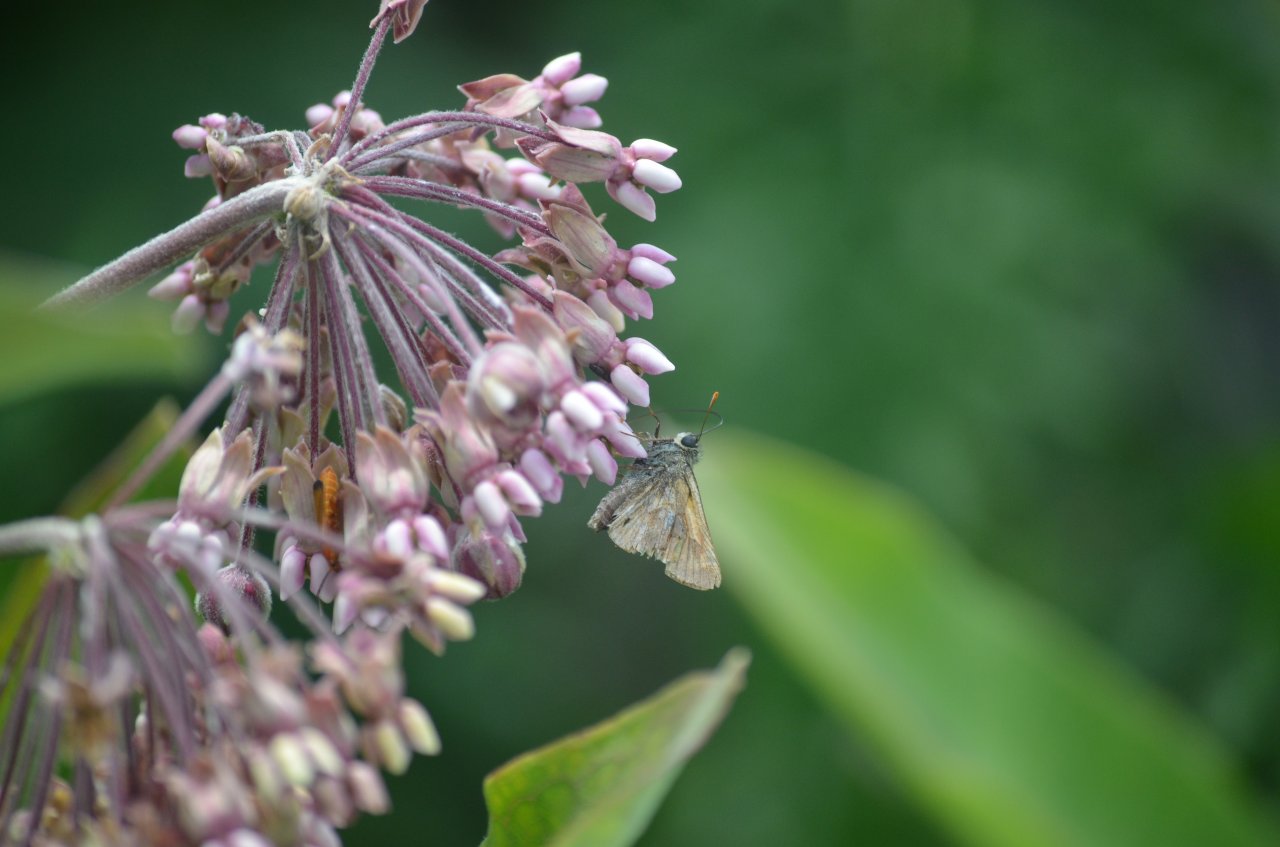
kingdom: Animalia
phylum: Arthropoda
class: Insecta
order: Lepidoptera
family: Hesperiidae
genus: Euphyes
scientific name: Euphyes
